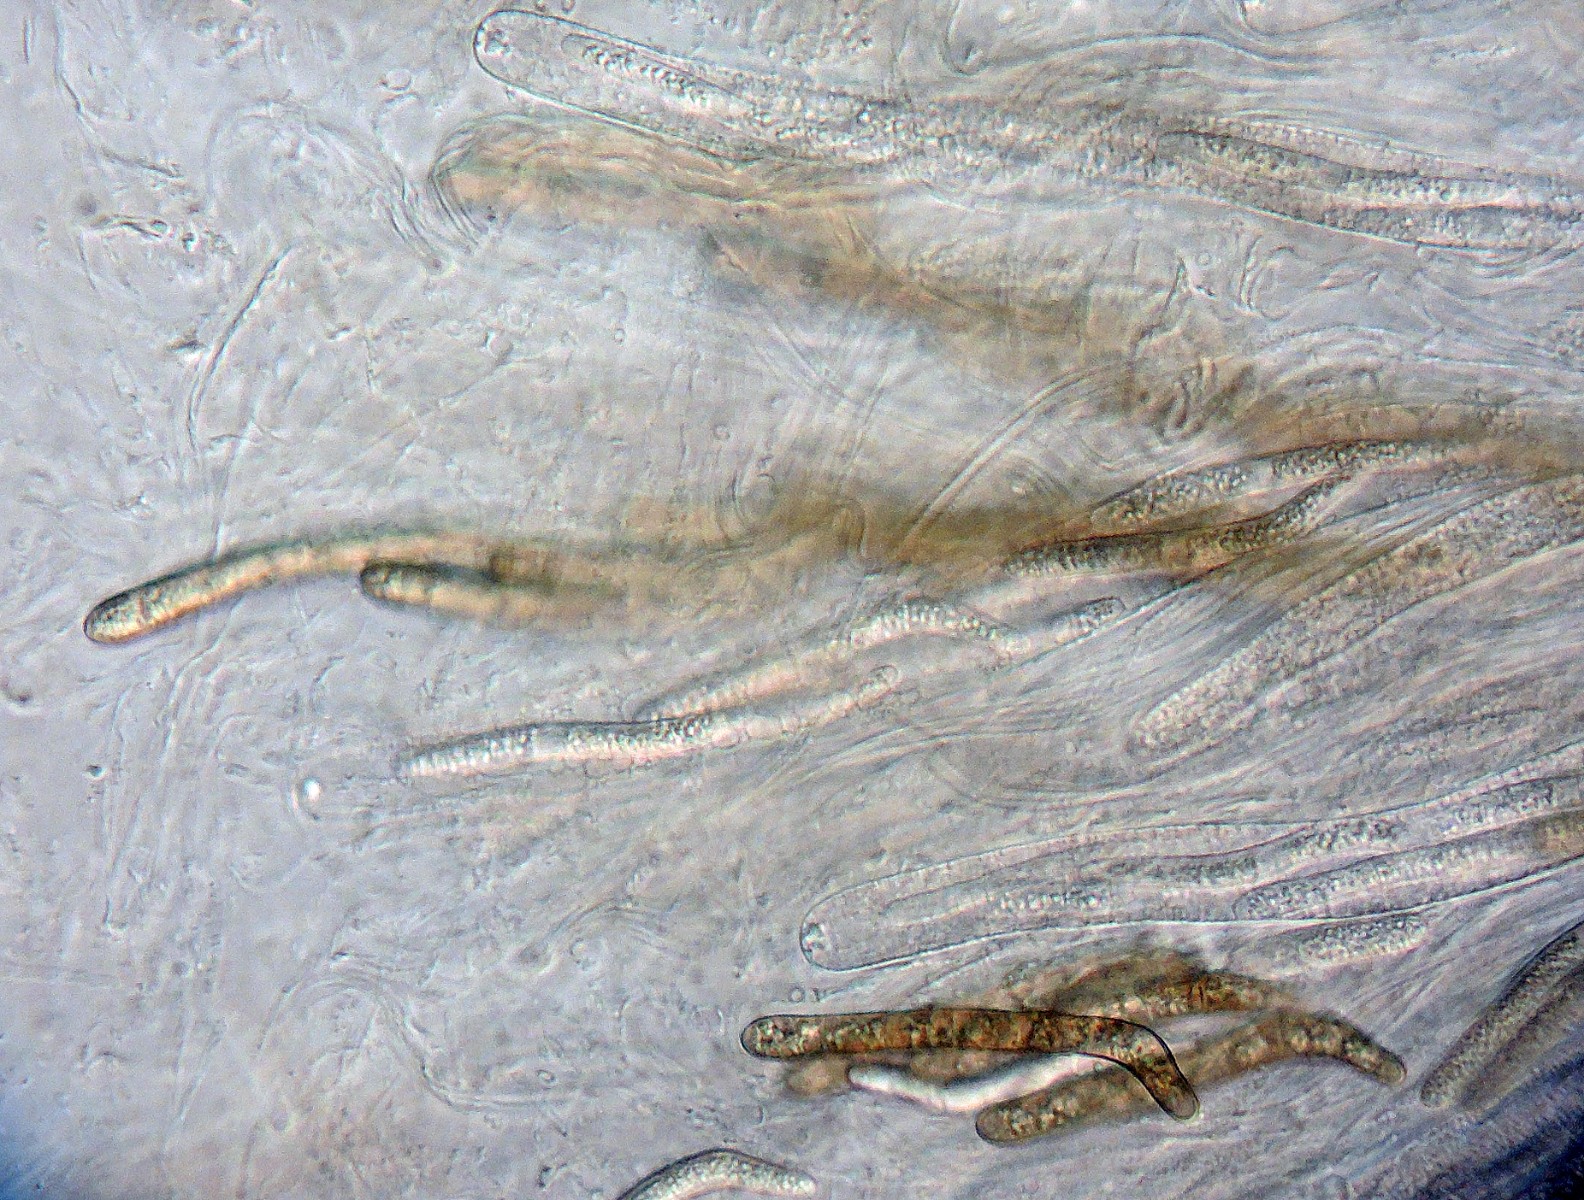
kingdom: Fungi
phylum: Ascomycota
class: Sordariomycetes
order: Sordariales
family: Lasiosphaeridaceae
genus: Lasiosphaeris
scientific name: Lasiosphaeris hirsuta
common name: sorthåret kernesvamp
